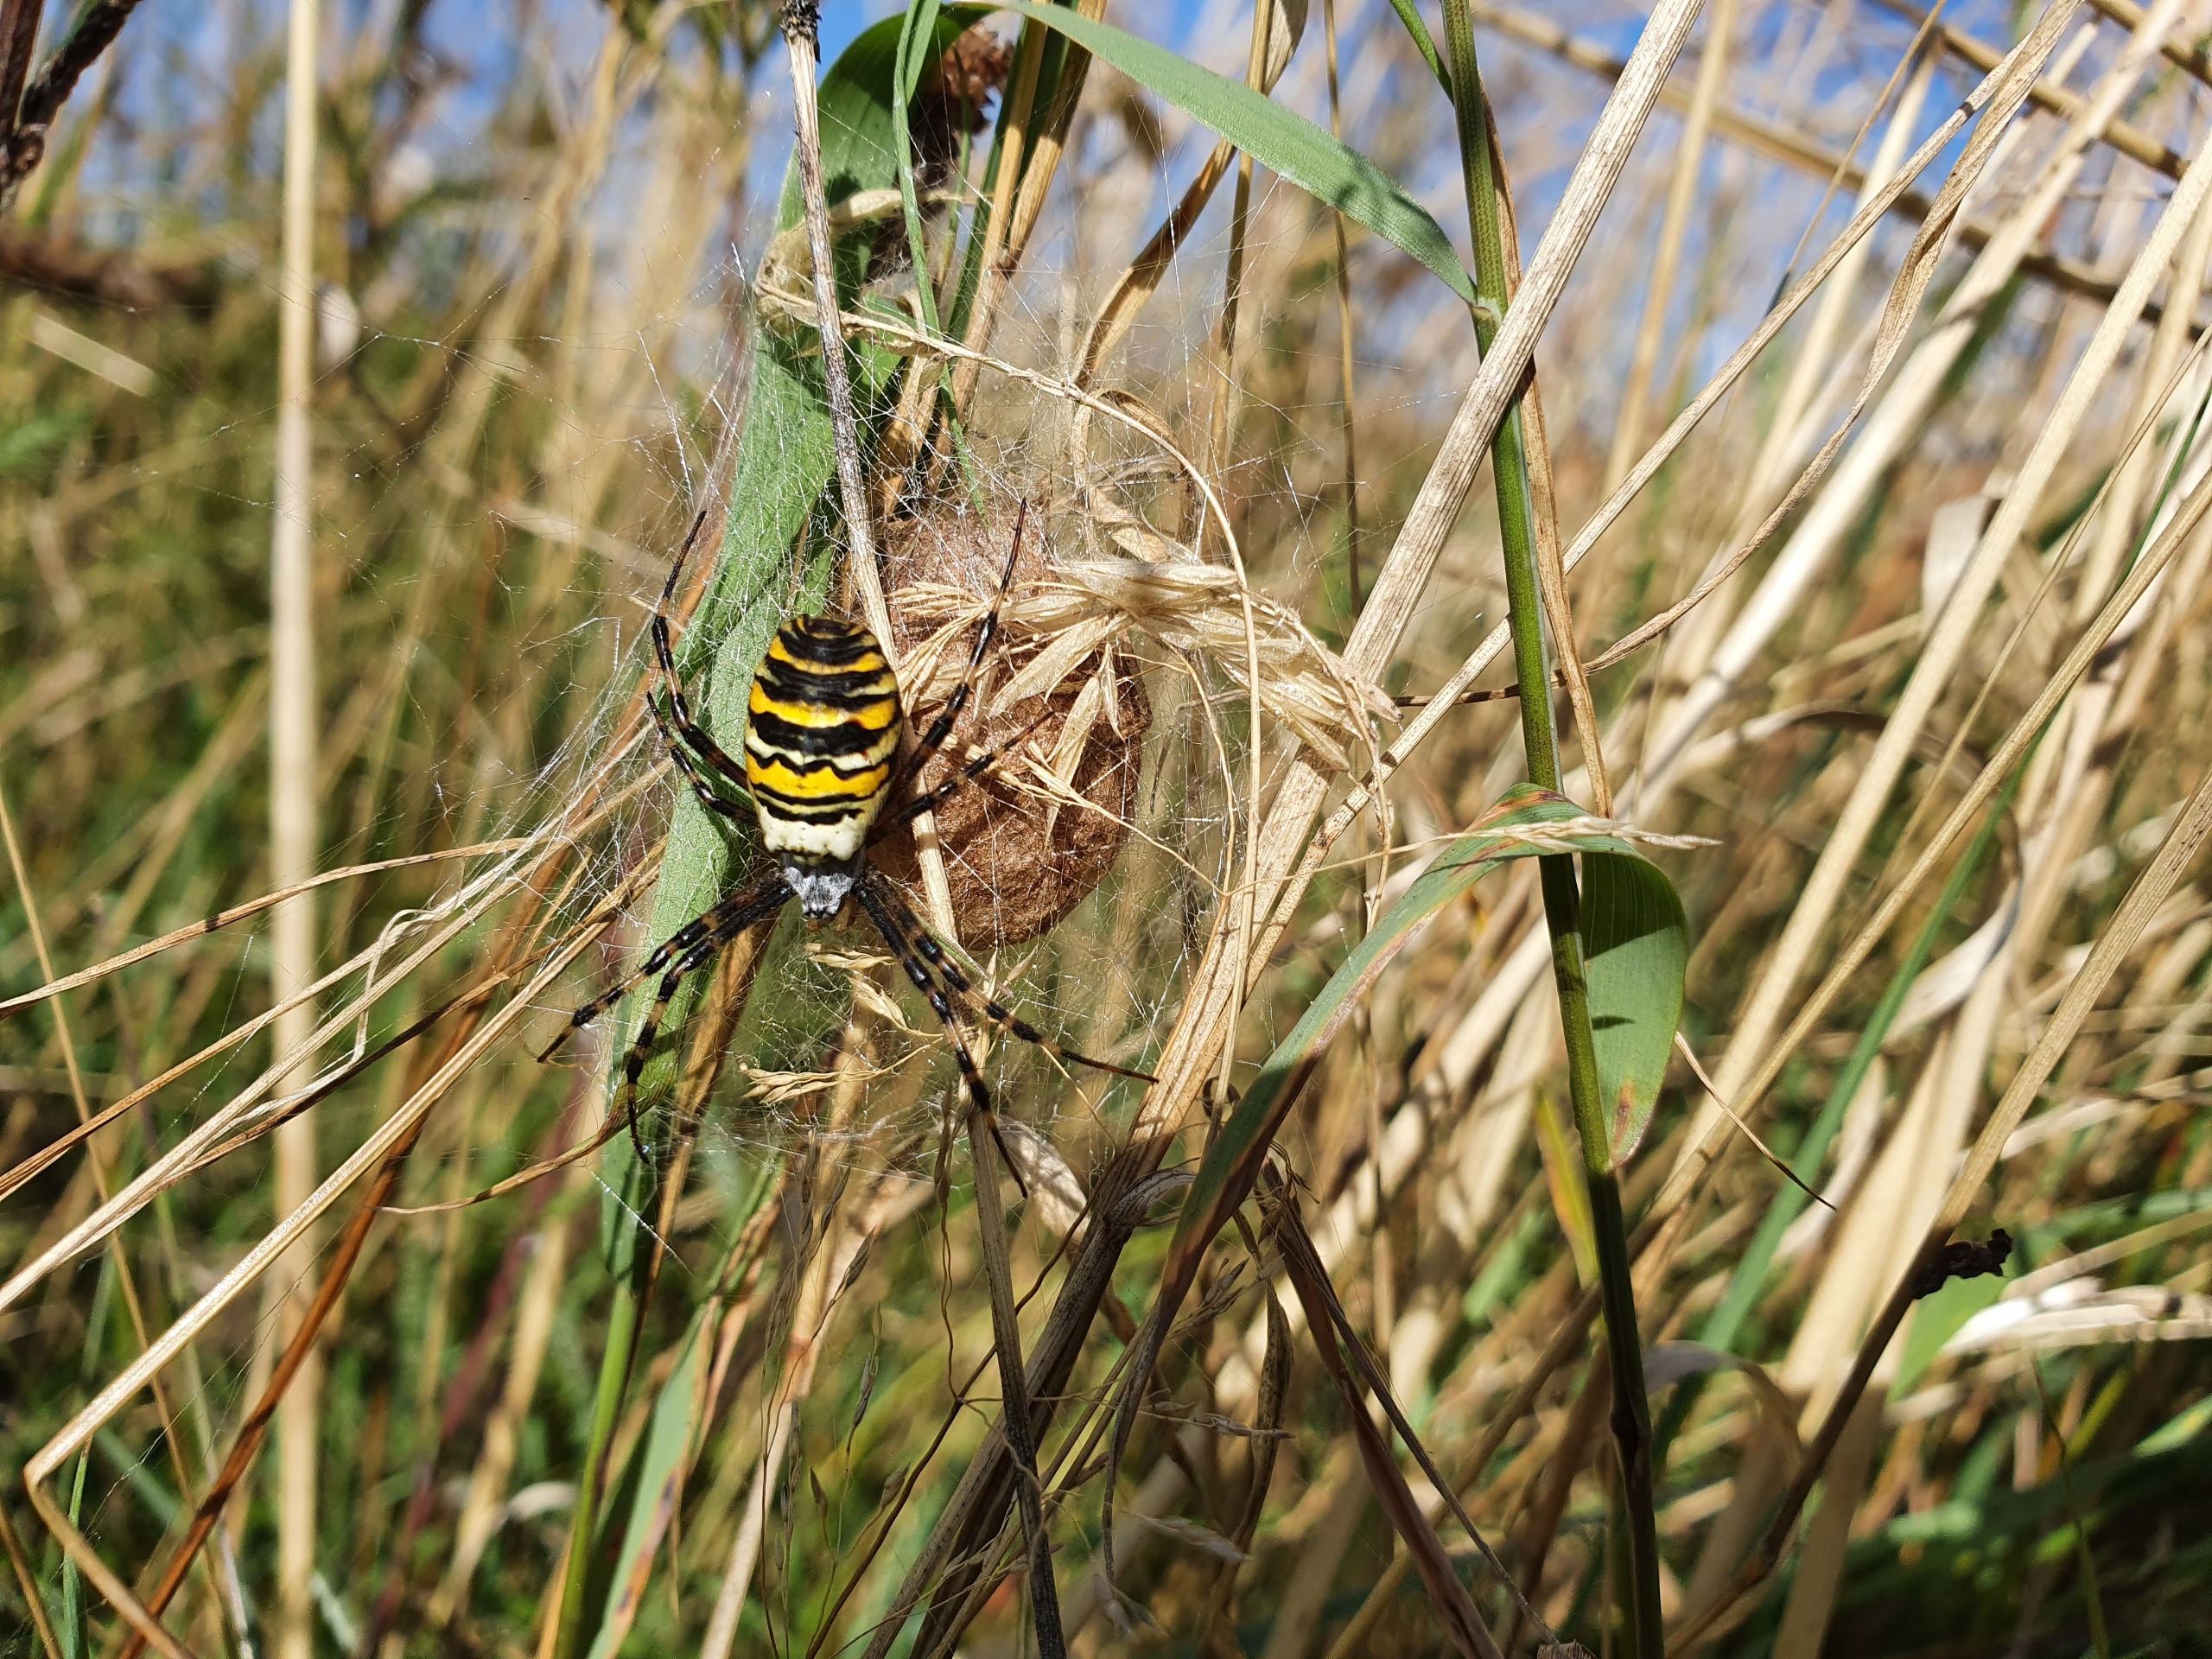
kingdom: Animalia
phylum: Arthropoda
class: Arachnida
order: Araneae
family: Araneidae
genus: Argiope
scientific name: Argiope bruennichi
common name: Hvepseedderkop
